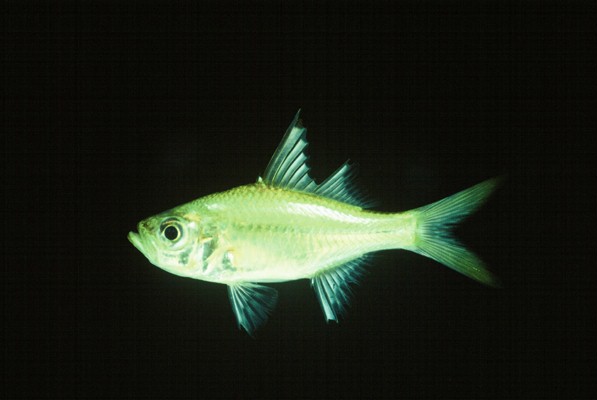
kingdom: Animalia
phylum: Chordata
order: Perciformes
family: Ambassidae
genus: Ambassis
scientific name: Ambassis ambassis
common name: Commerson's glassy perchlet
